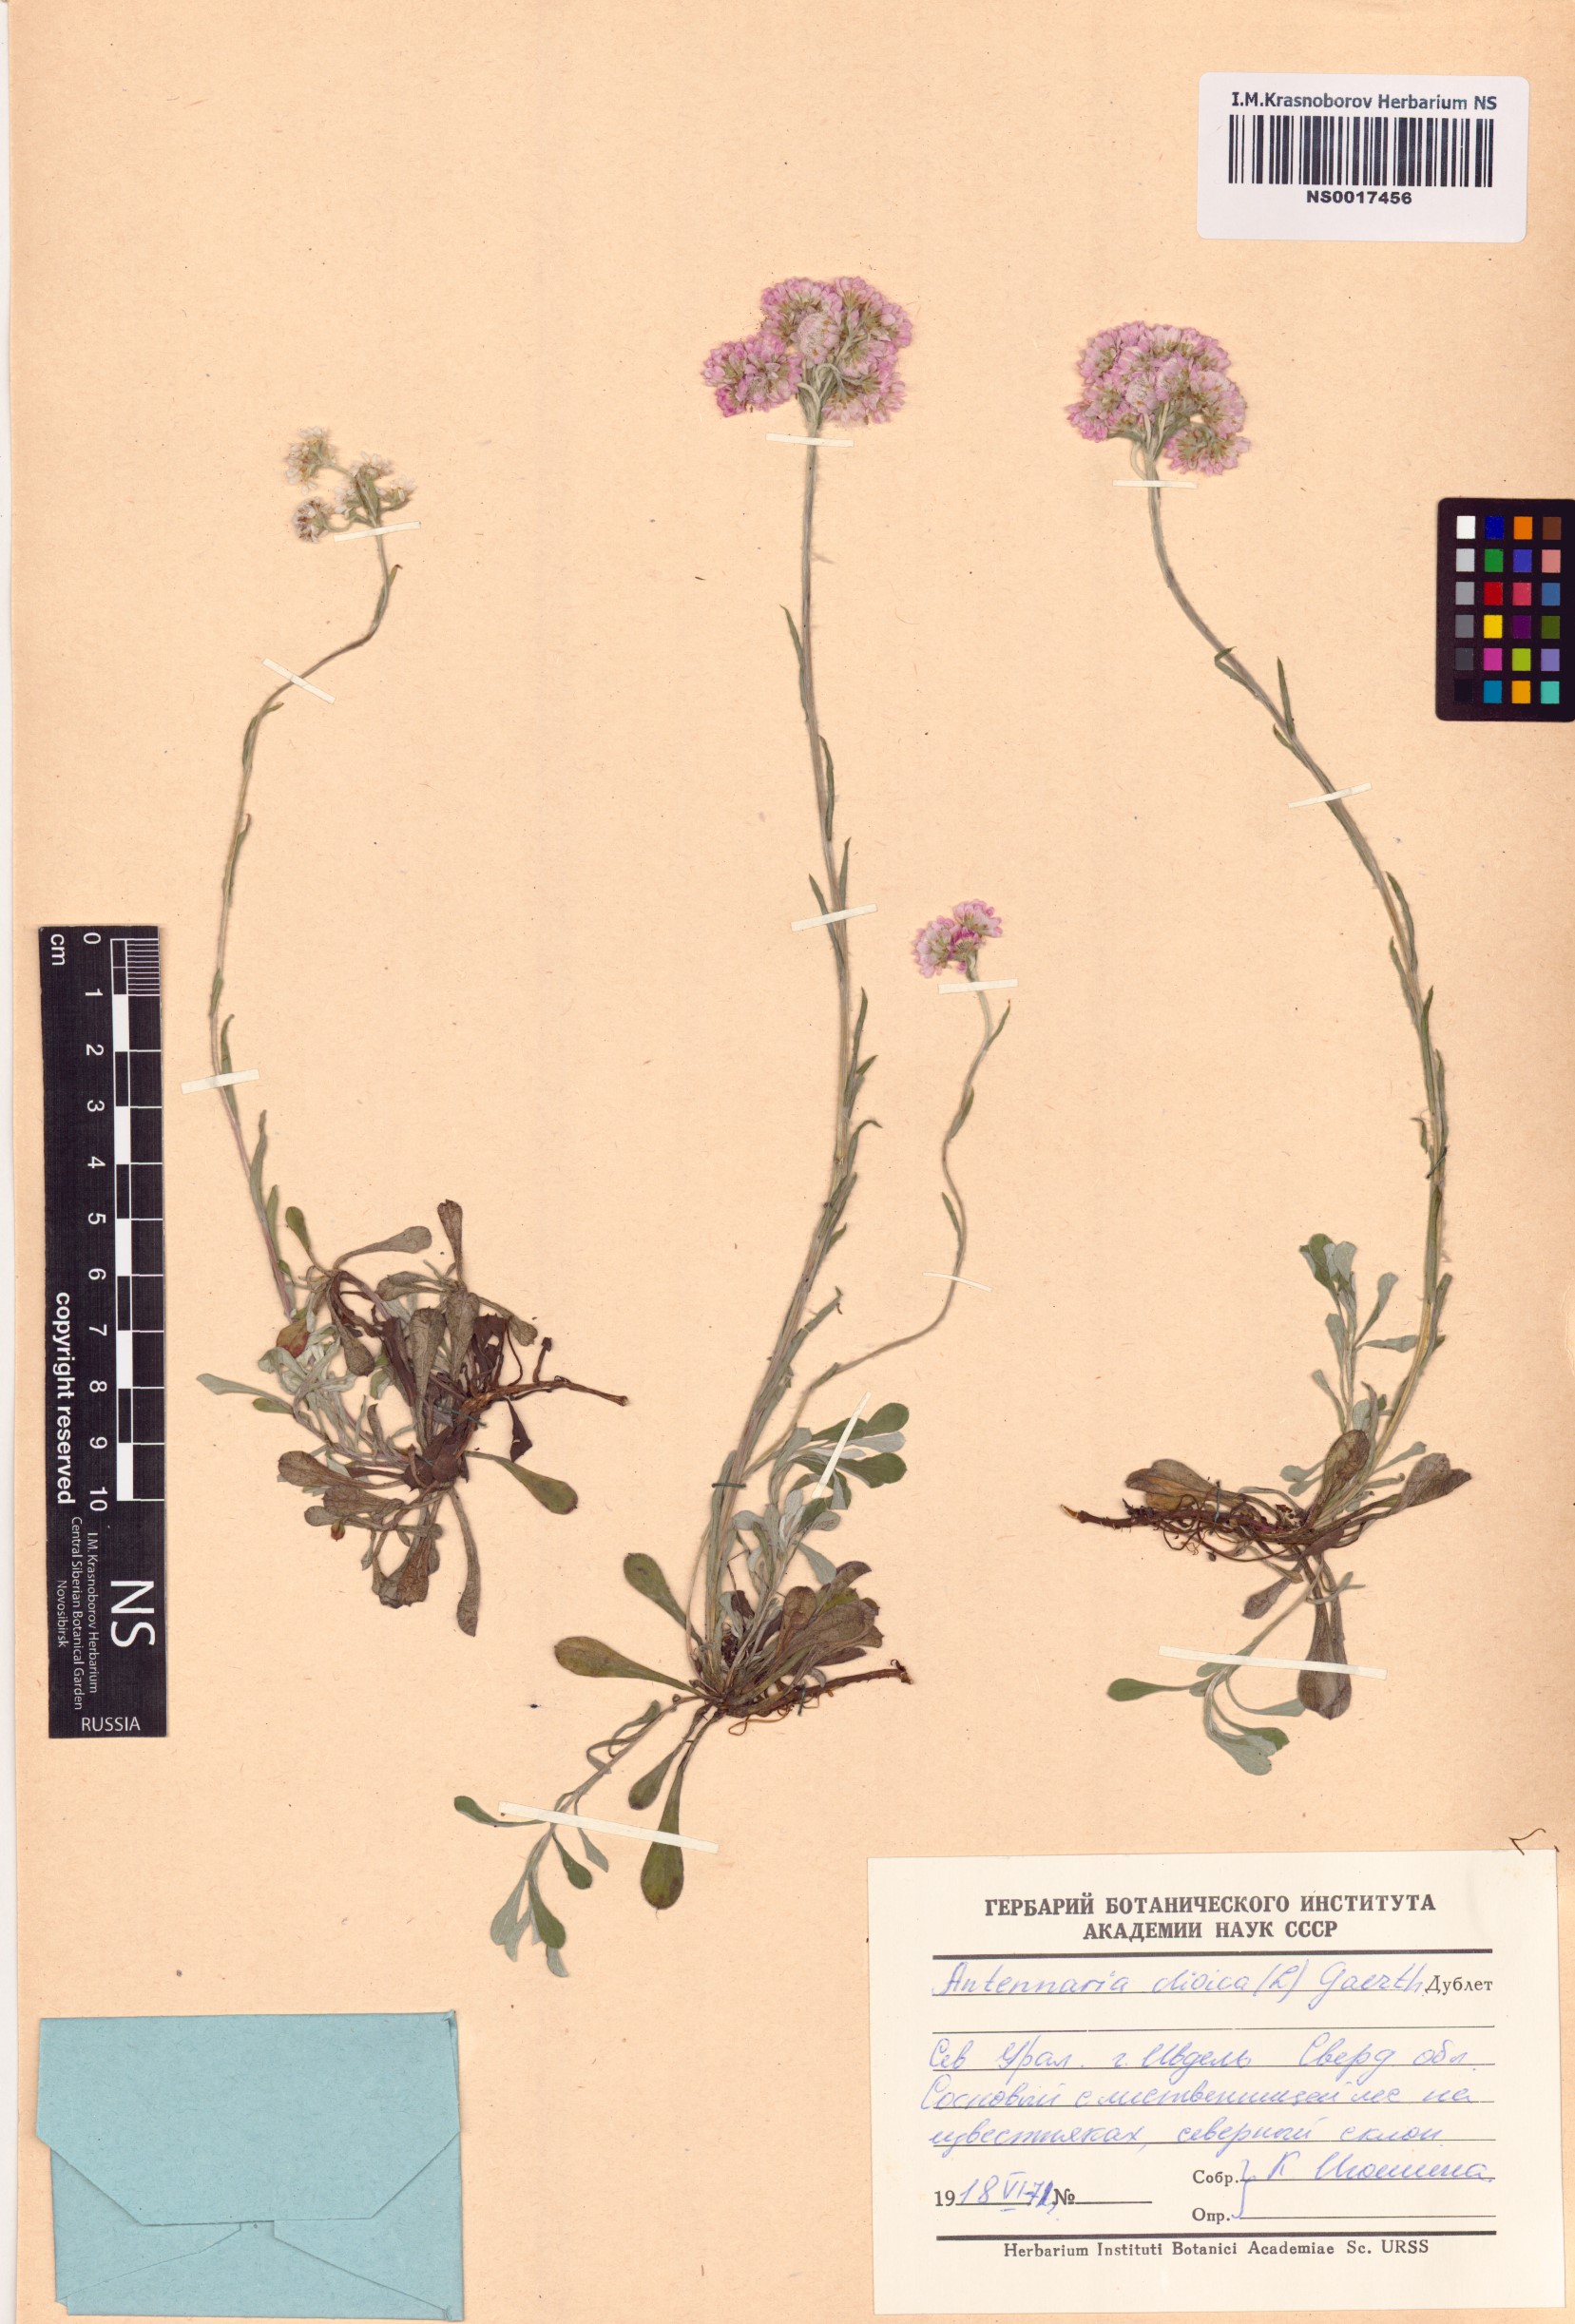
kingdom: Plantae
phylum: Tracheophyta
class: Magnoliopsida
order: Asterales
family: Asteraceae
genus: Antennaria
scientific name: Antennaria dioica
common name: Mountain everlasting
